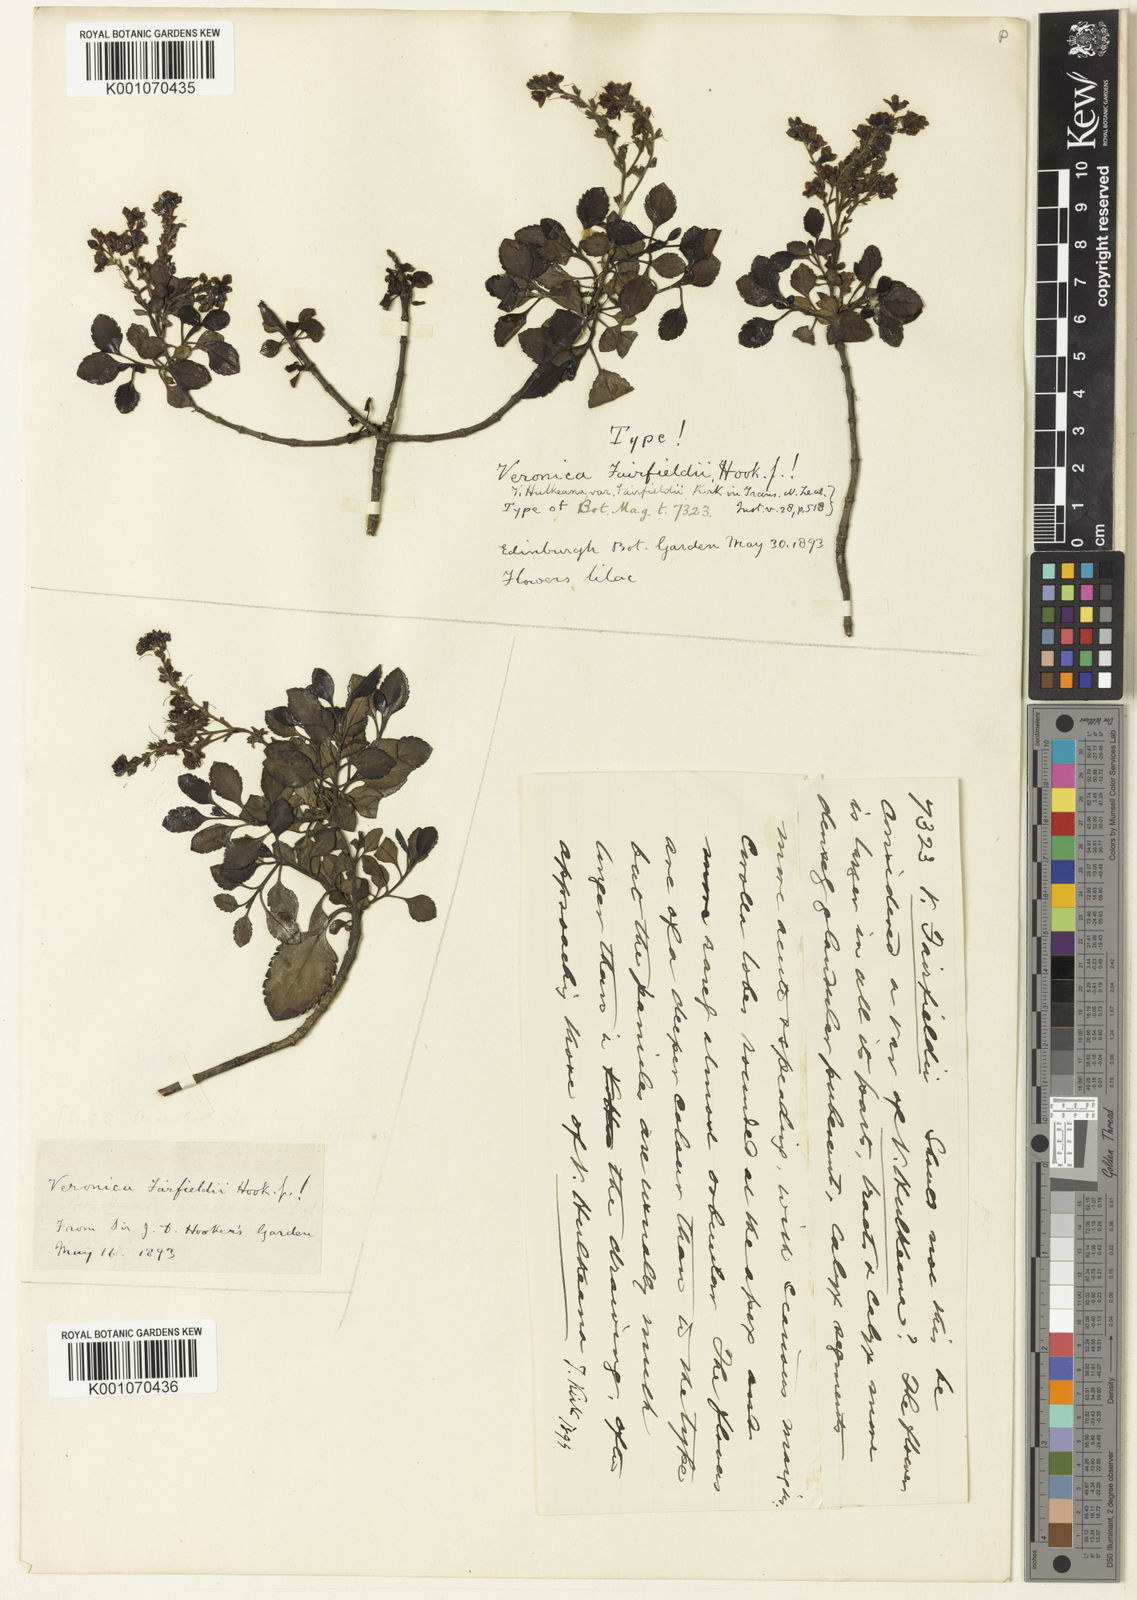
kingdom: Plantae
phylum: Tracheophyta
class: Magnoliopsida
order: Lamiales
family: Plantaginaceae
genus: Veronica
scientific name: Veronica
